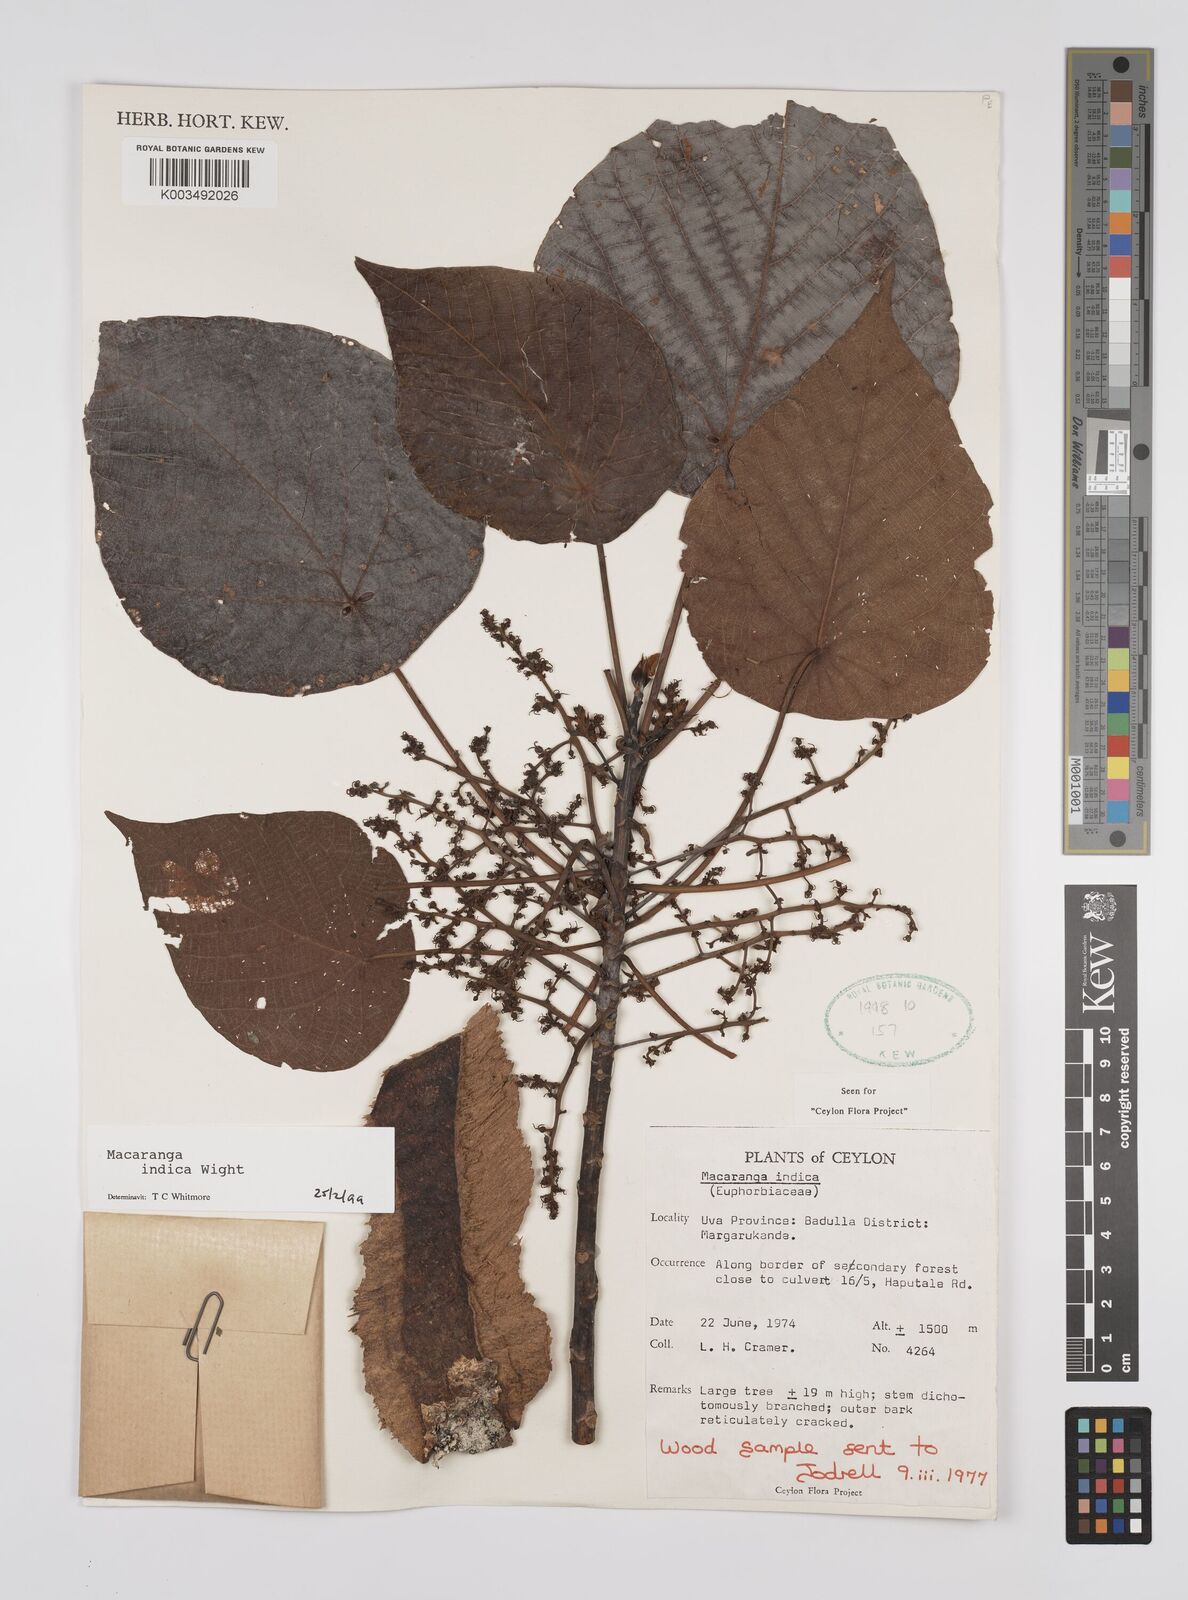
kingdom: Plantae
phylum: Tracheophyta
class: Magnoliopsida
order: Malpighiales
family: Euphorbiaceae
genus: Macaranga
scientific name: Macaranga indica
